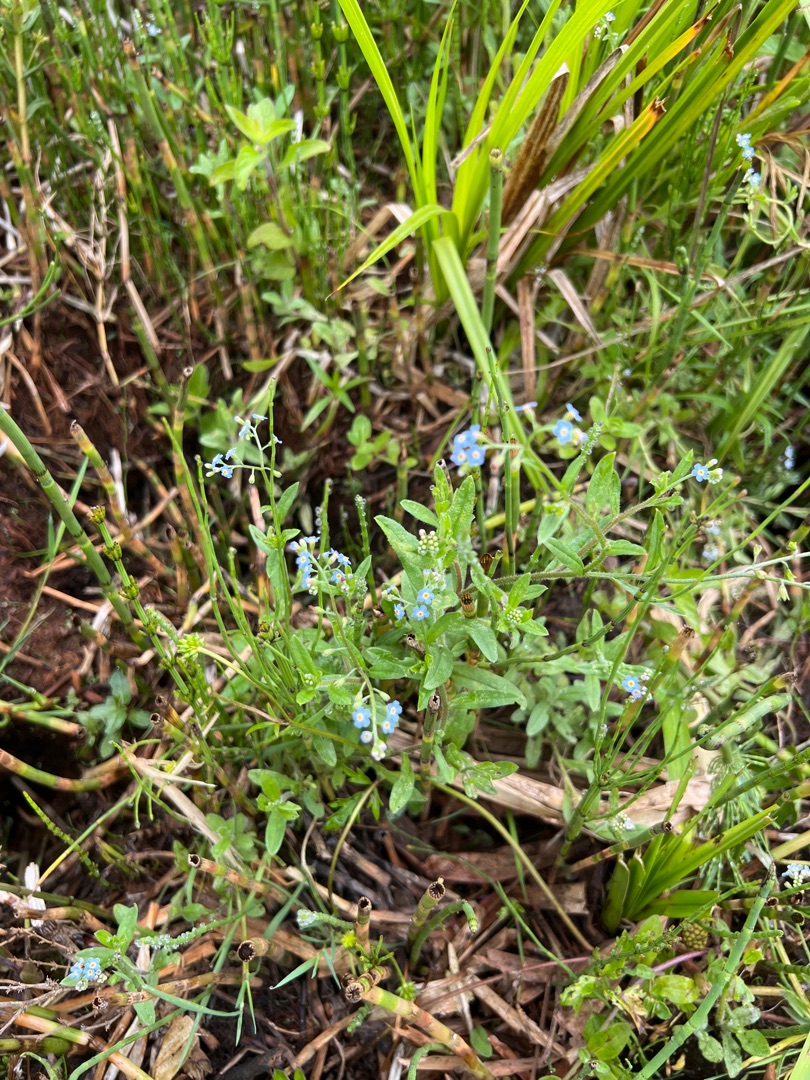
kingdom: Plantae
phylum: Tracheophyta
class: Magnoliopsida
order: Boraginales
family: Boraginaceae
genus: Myosotis
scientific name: Myosotis scorpioides
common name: Eng-forglemmigej
